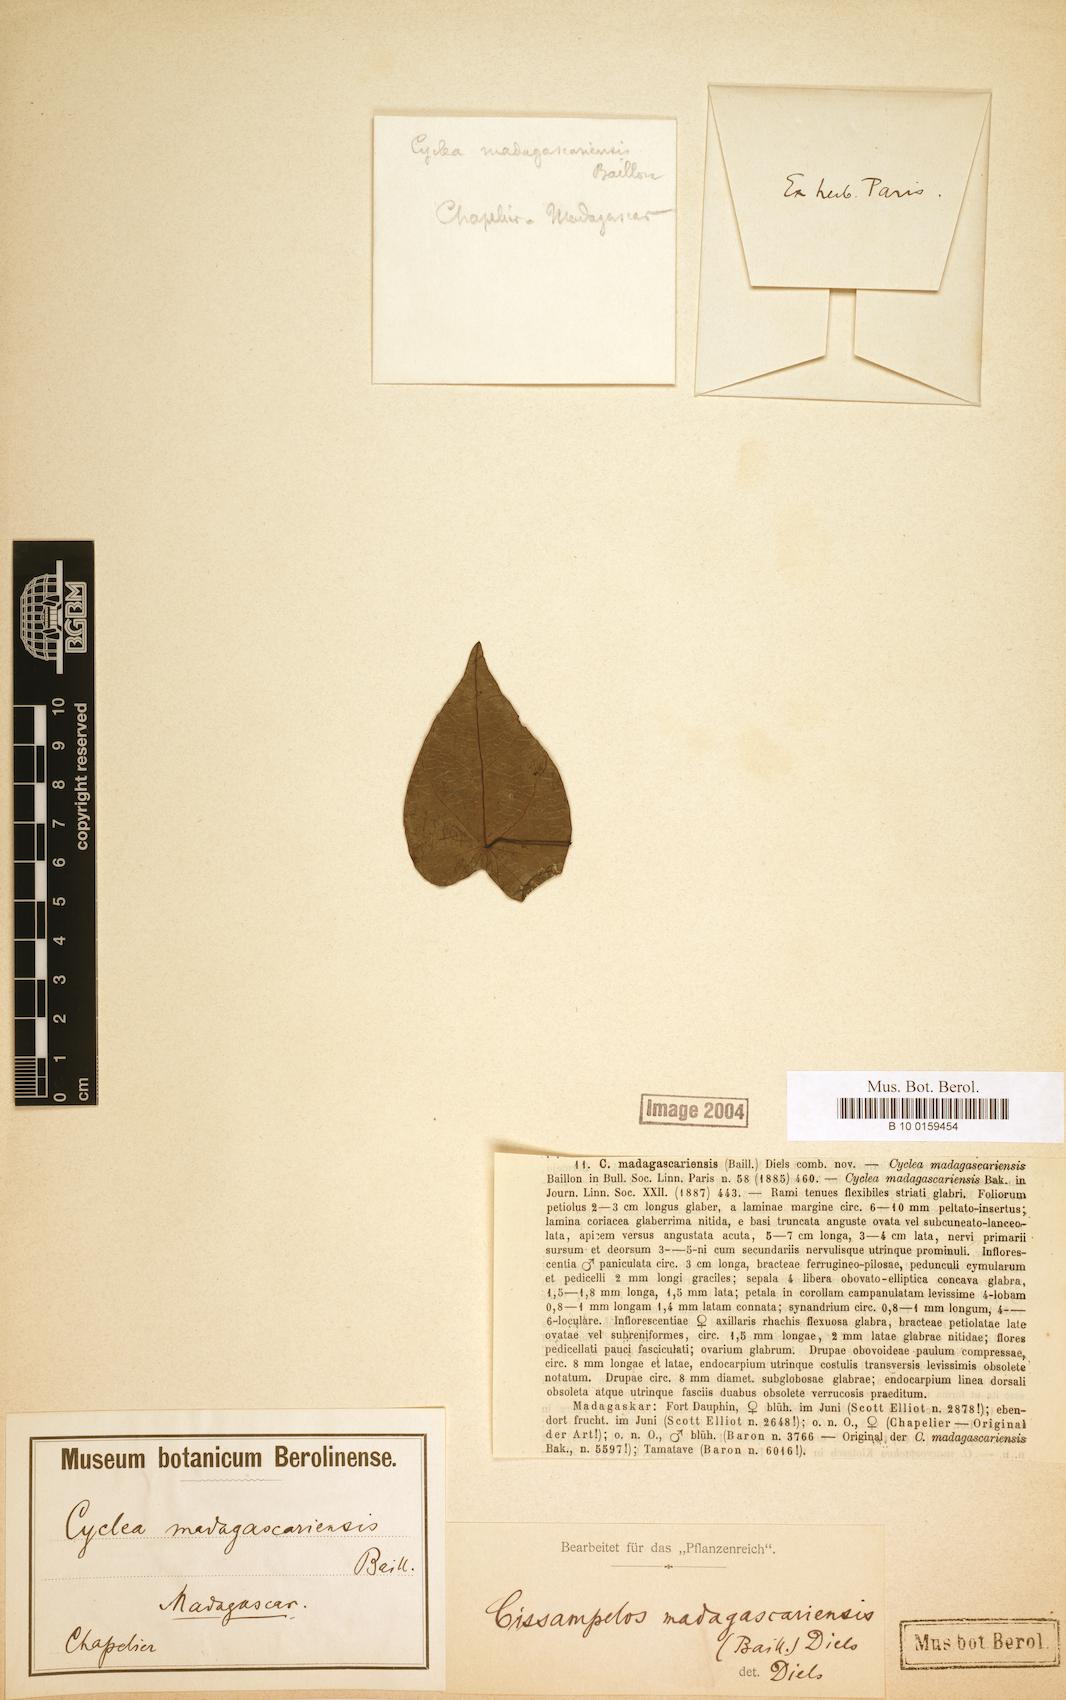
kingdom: Plantae
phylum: Tracheophyta
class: Magnoliopsida
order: Ranunculales
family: Menispermaceae
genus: Cissampelos
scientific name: Cissampelos pareira
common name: Velvetleaf
